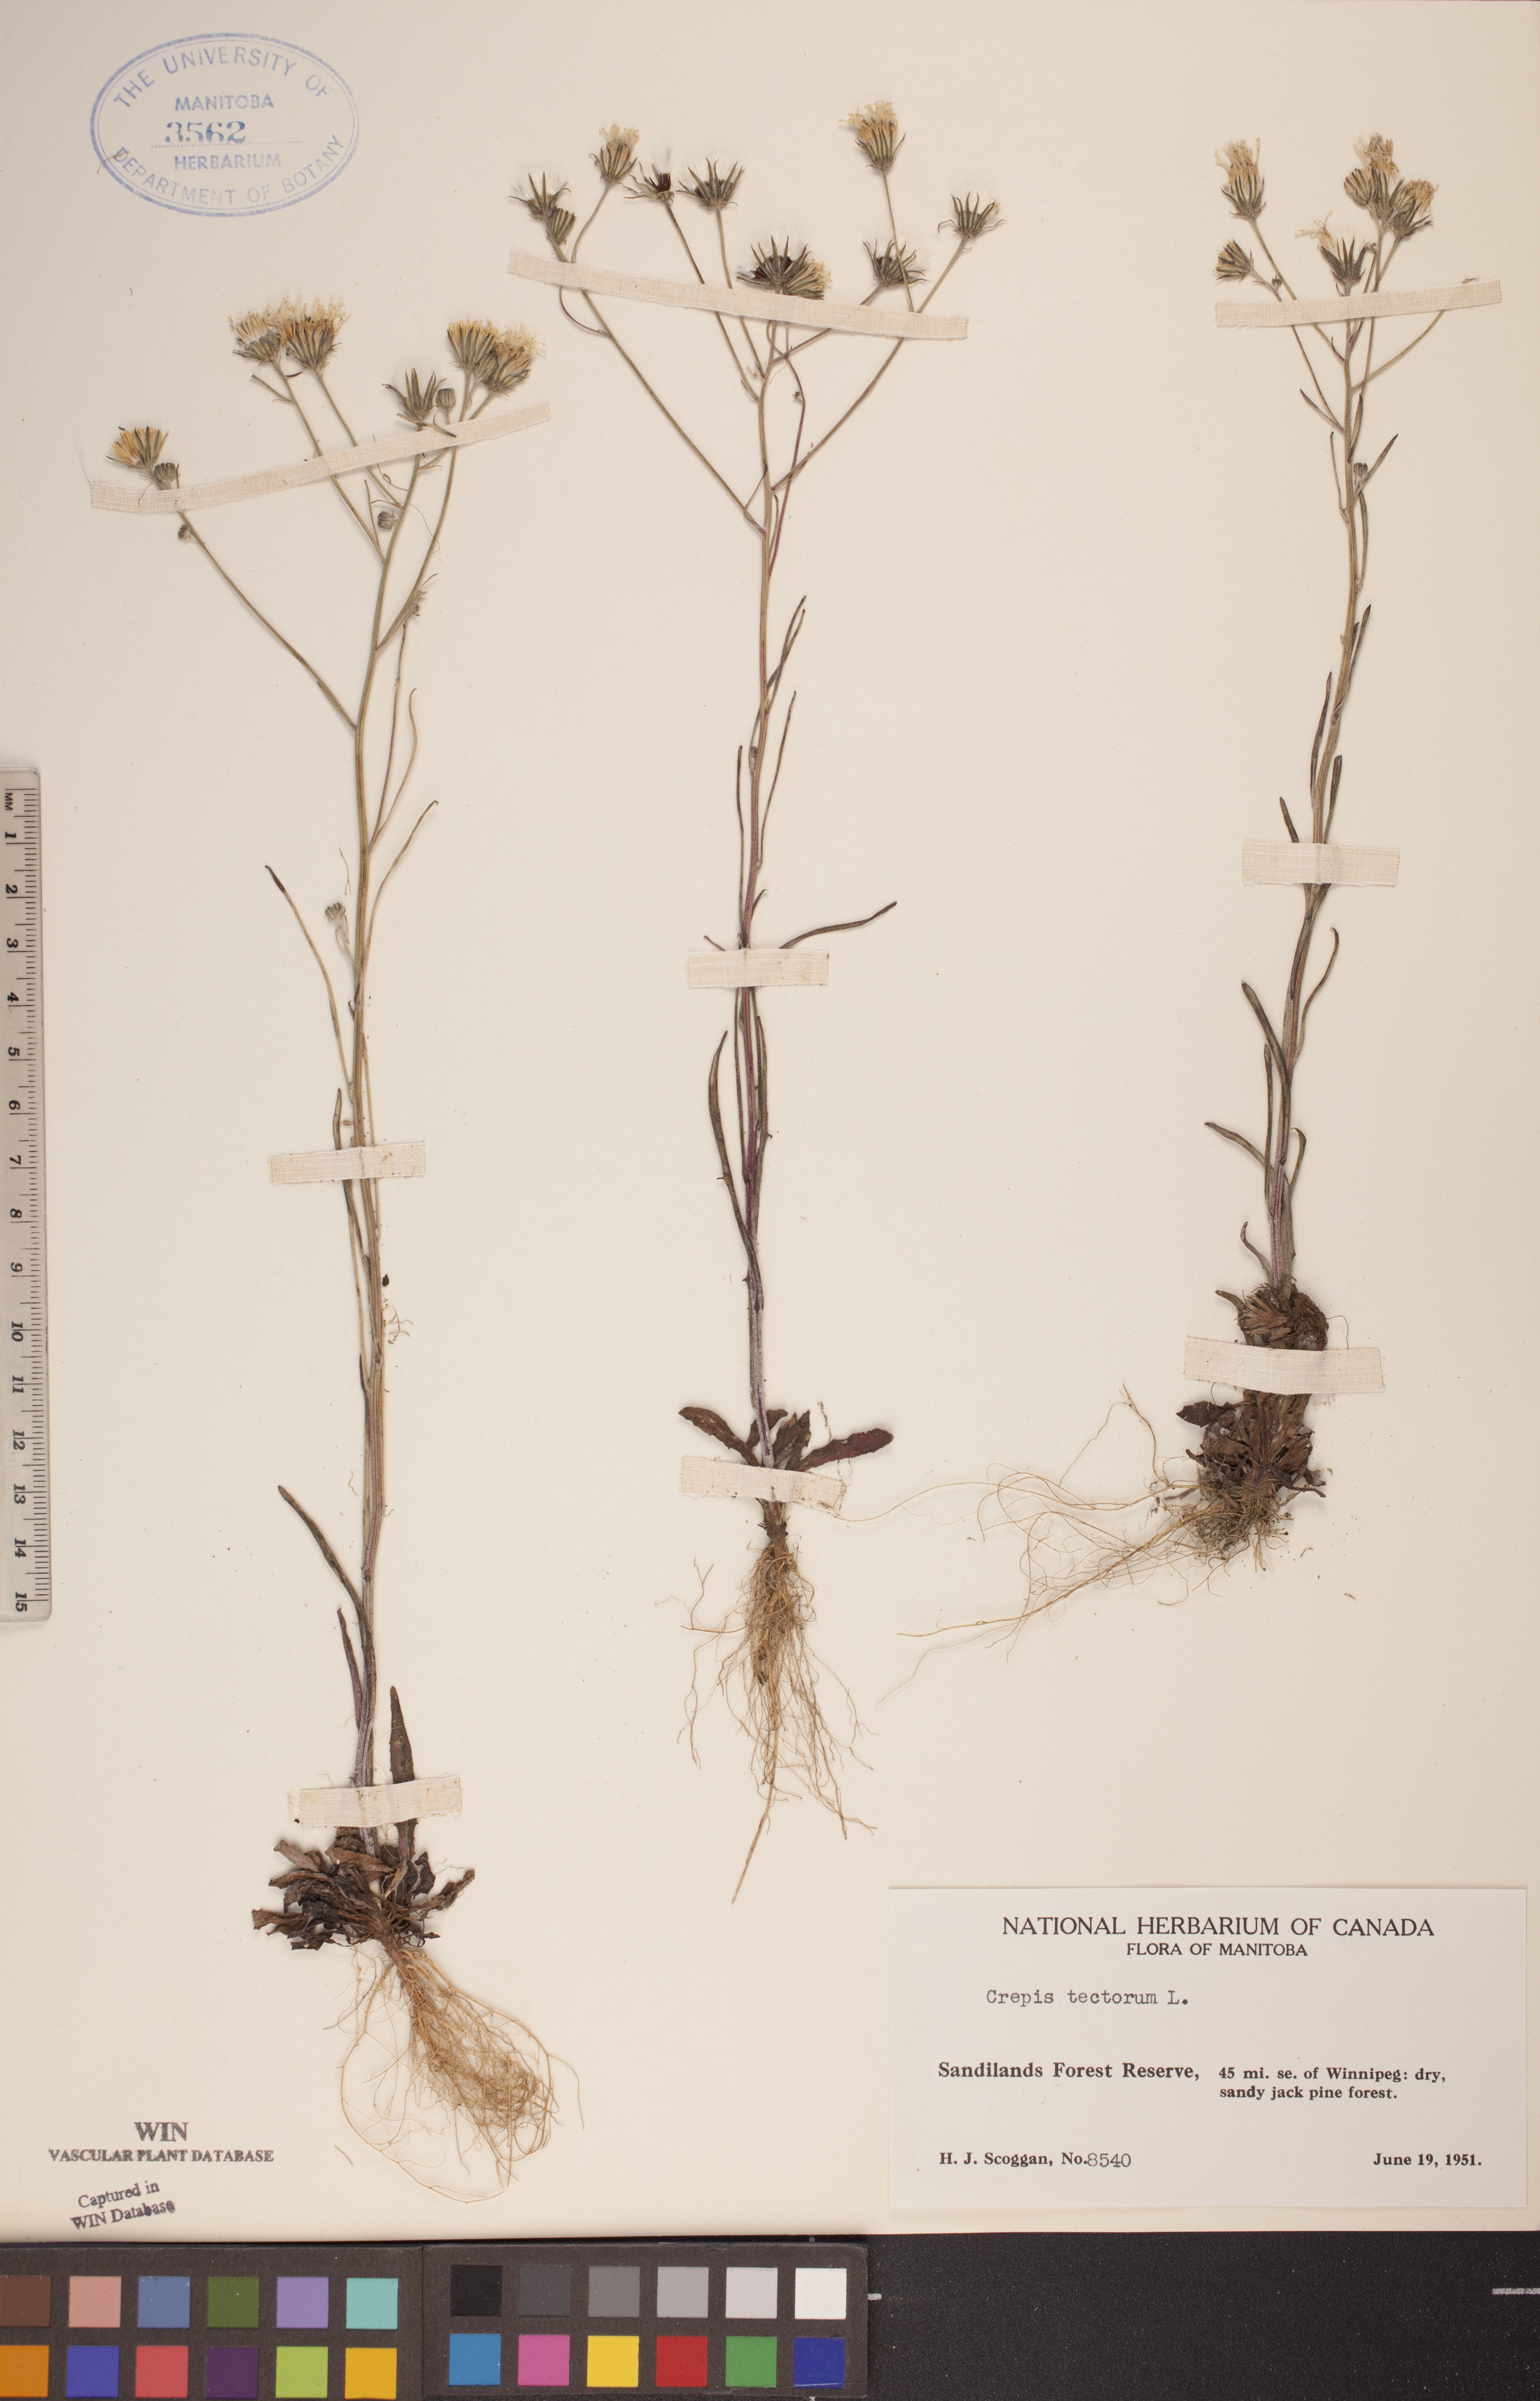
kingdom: Plantae
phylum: Tracheophyta
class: Magnoliopsida
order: Asterales
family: Asteraceae
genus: Crepis
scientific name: Crepis tectorum
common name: Narrow-leaved hawk's-beard
